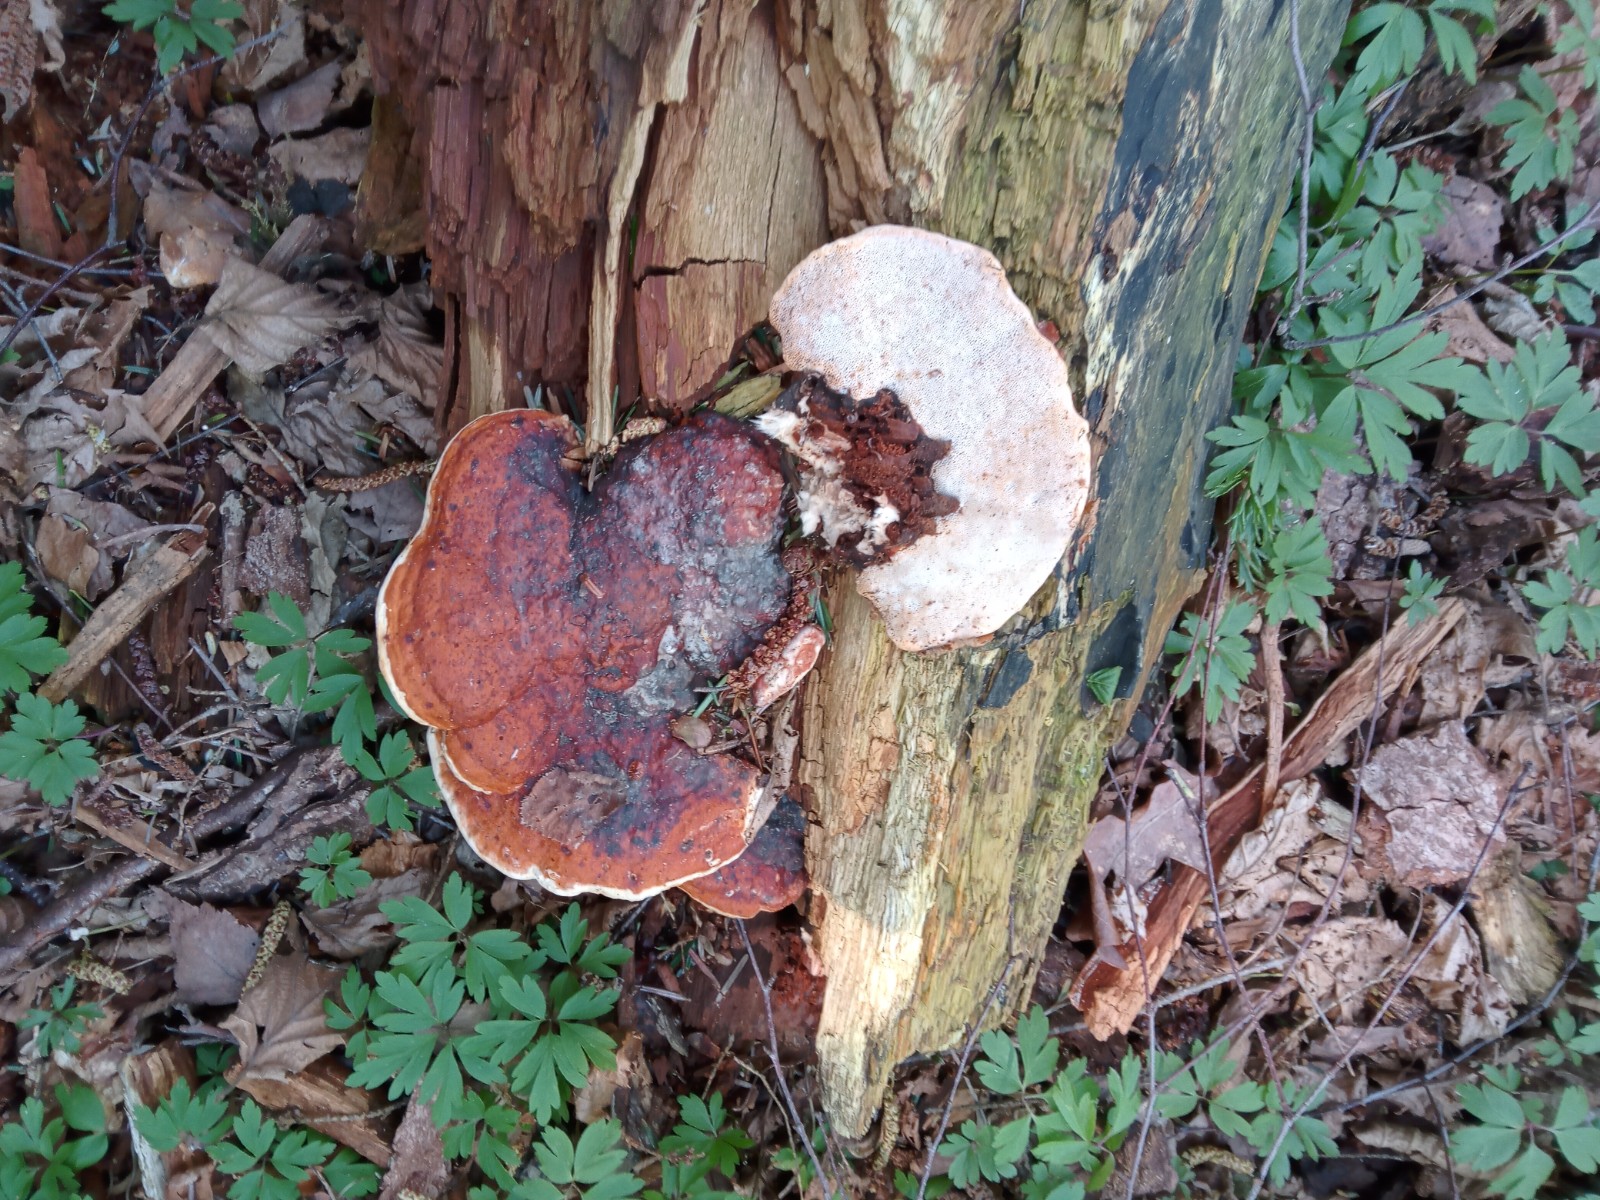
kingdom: Fungi
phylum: Basidiomycota
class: Agaricomycetes
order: Polyporales
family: Fomitopsidaceae
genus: Fomitopsis
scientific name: Fomitopsis pinicola
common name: randbæltet hovporesvamp
